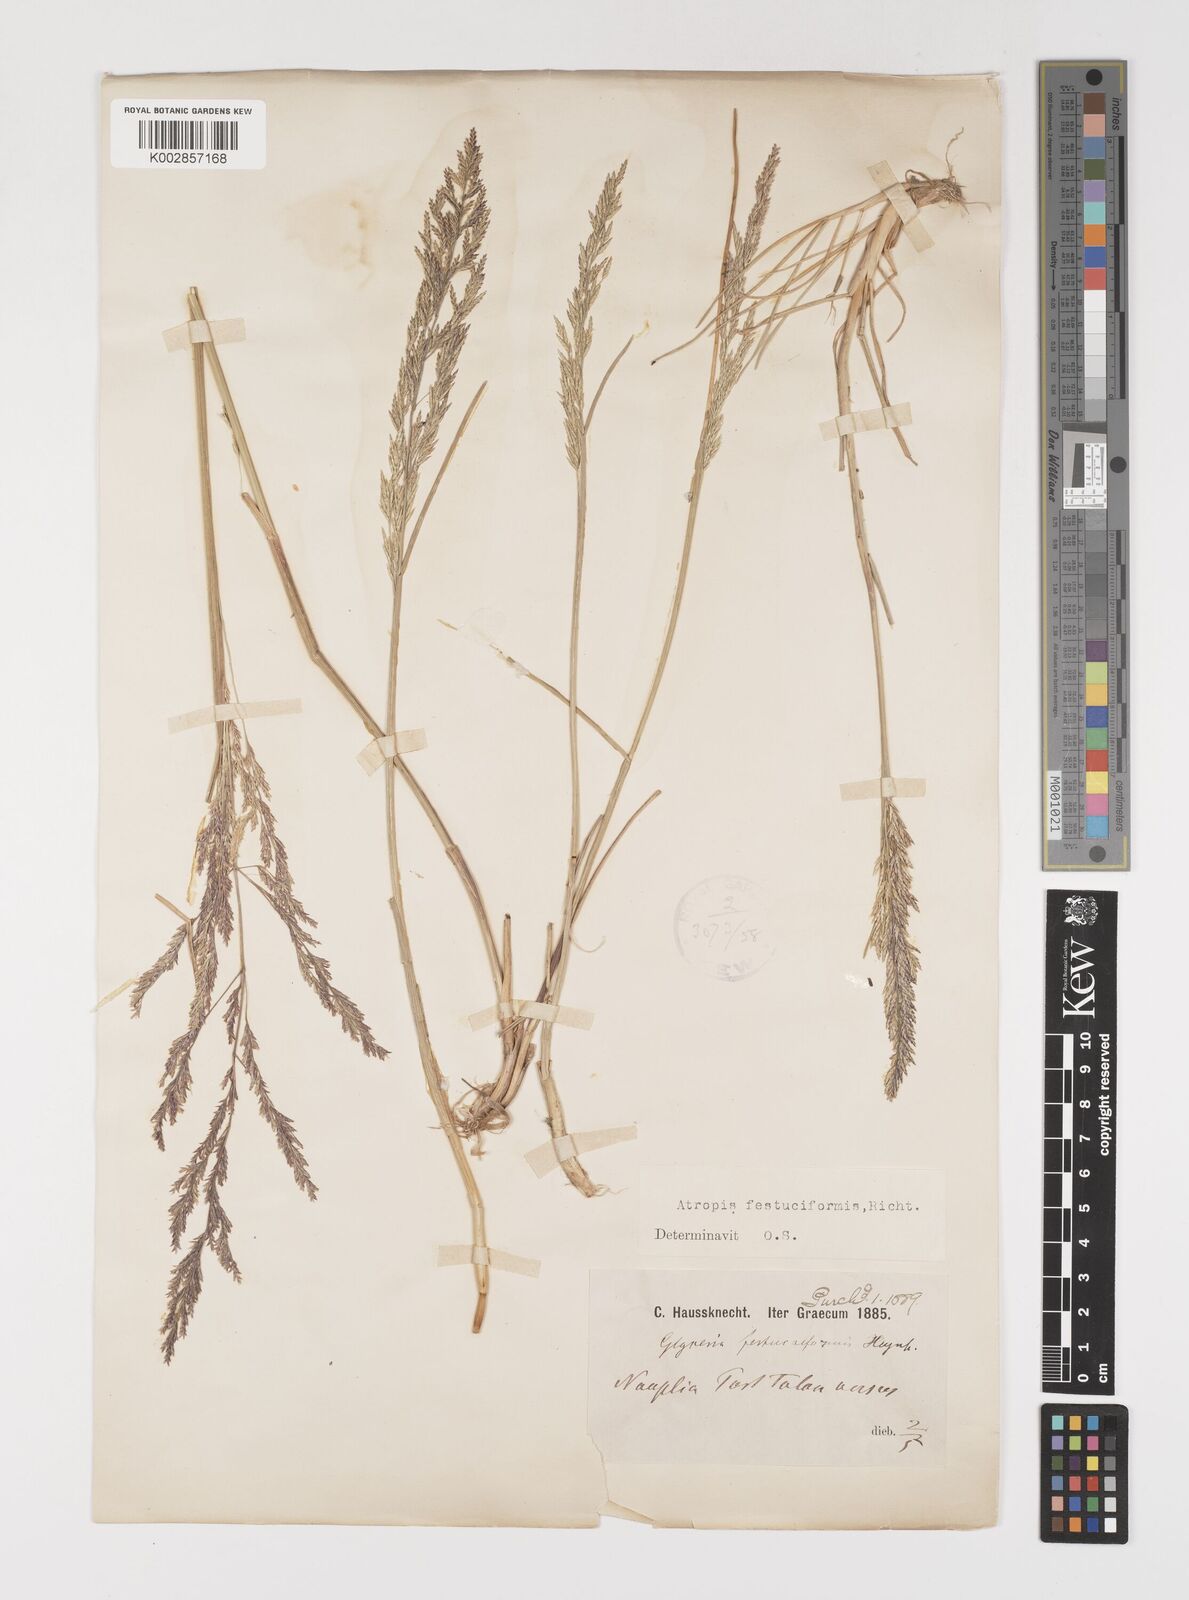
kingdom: Plantae
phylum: Tracheophyta
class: Liliopsida
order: Poales
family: Poaceae
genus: Puccinellia
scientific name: Puccinellia festuciformis
